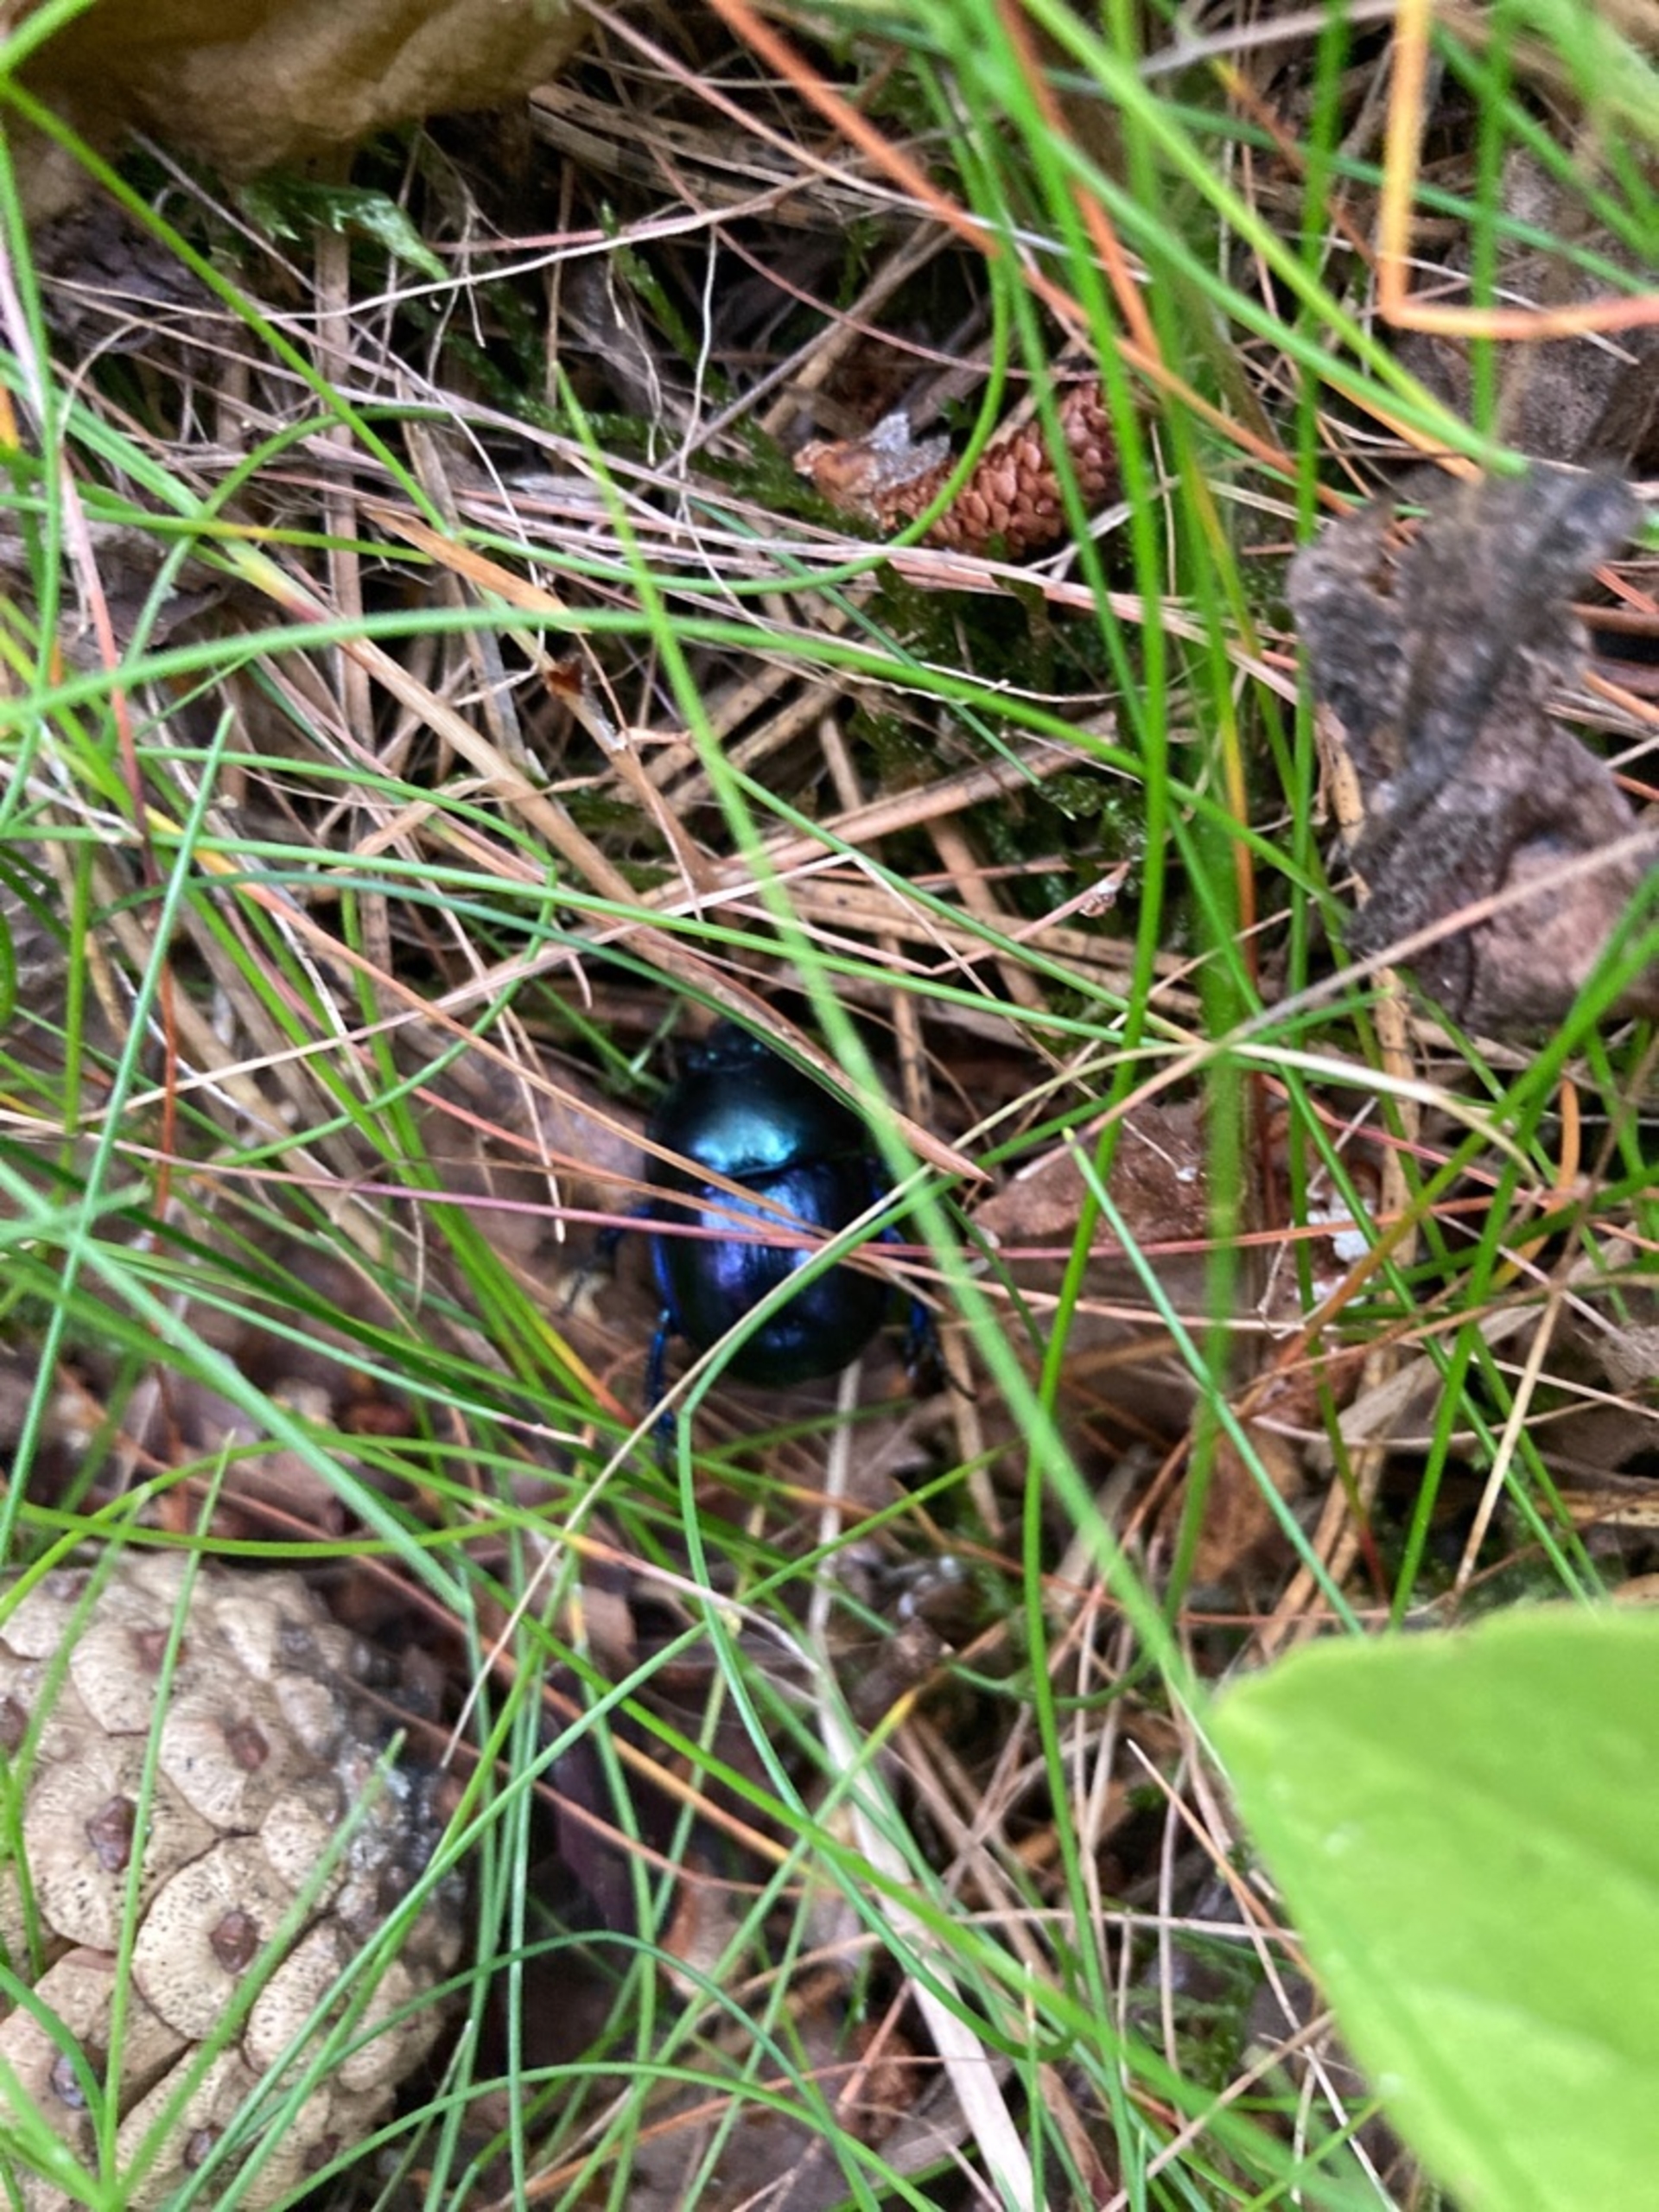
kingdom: Animalia
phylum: Arthropoda
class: Insecta
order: Coleoptera
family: Geotrupidae
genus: Trypocopris
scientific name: Trypocopris vernalis
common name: Glat skarnbasse
